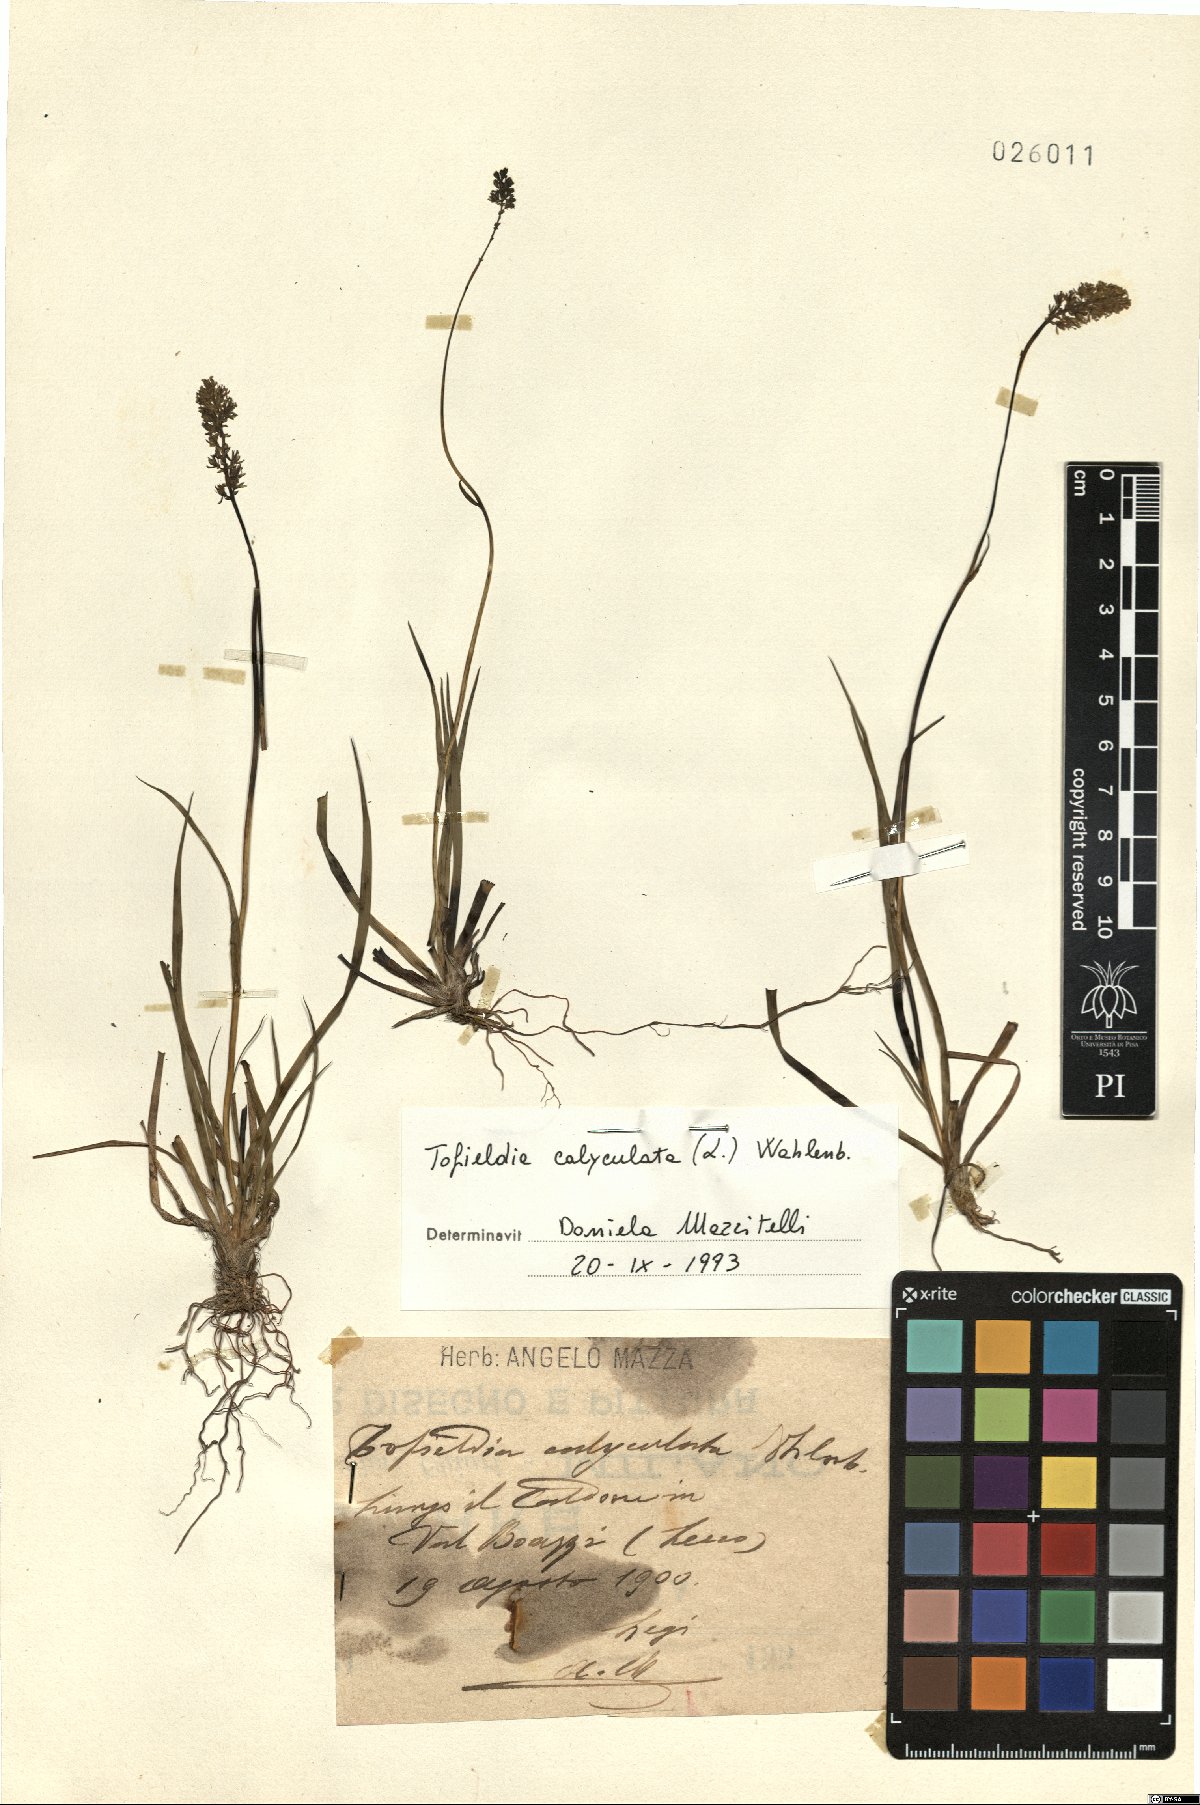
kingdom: Plantae
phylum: Tracheophyta
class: Liliopsida
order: Alismatales
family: Tofieldiaceae
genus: Tofieldia
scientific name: Tofieldia calyculata
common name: German-asphodel
